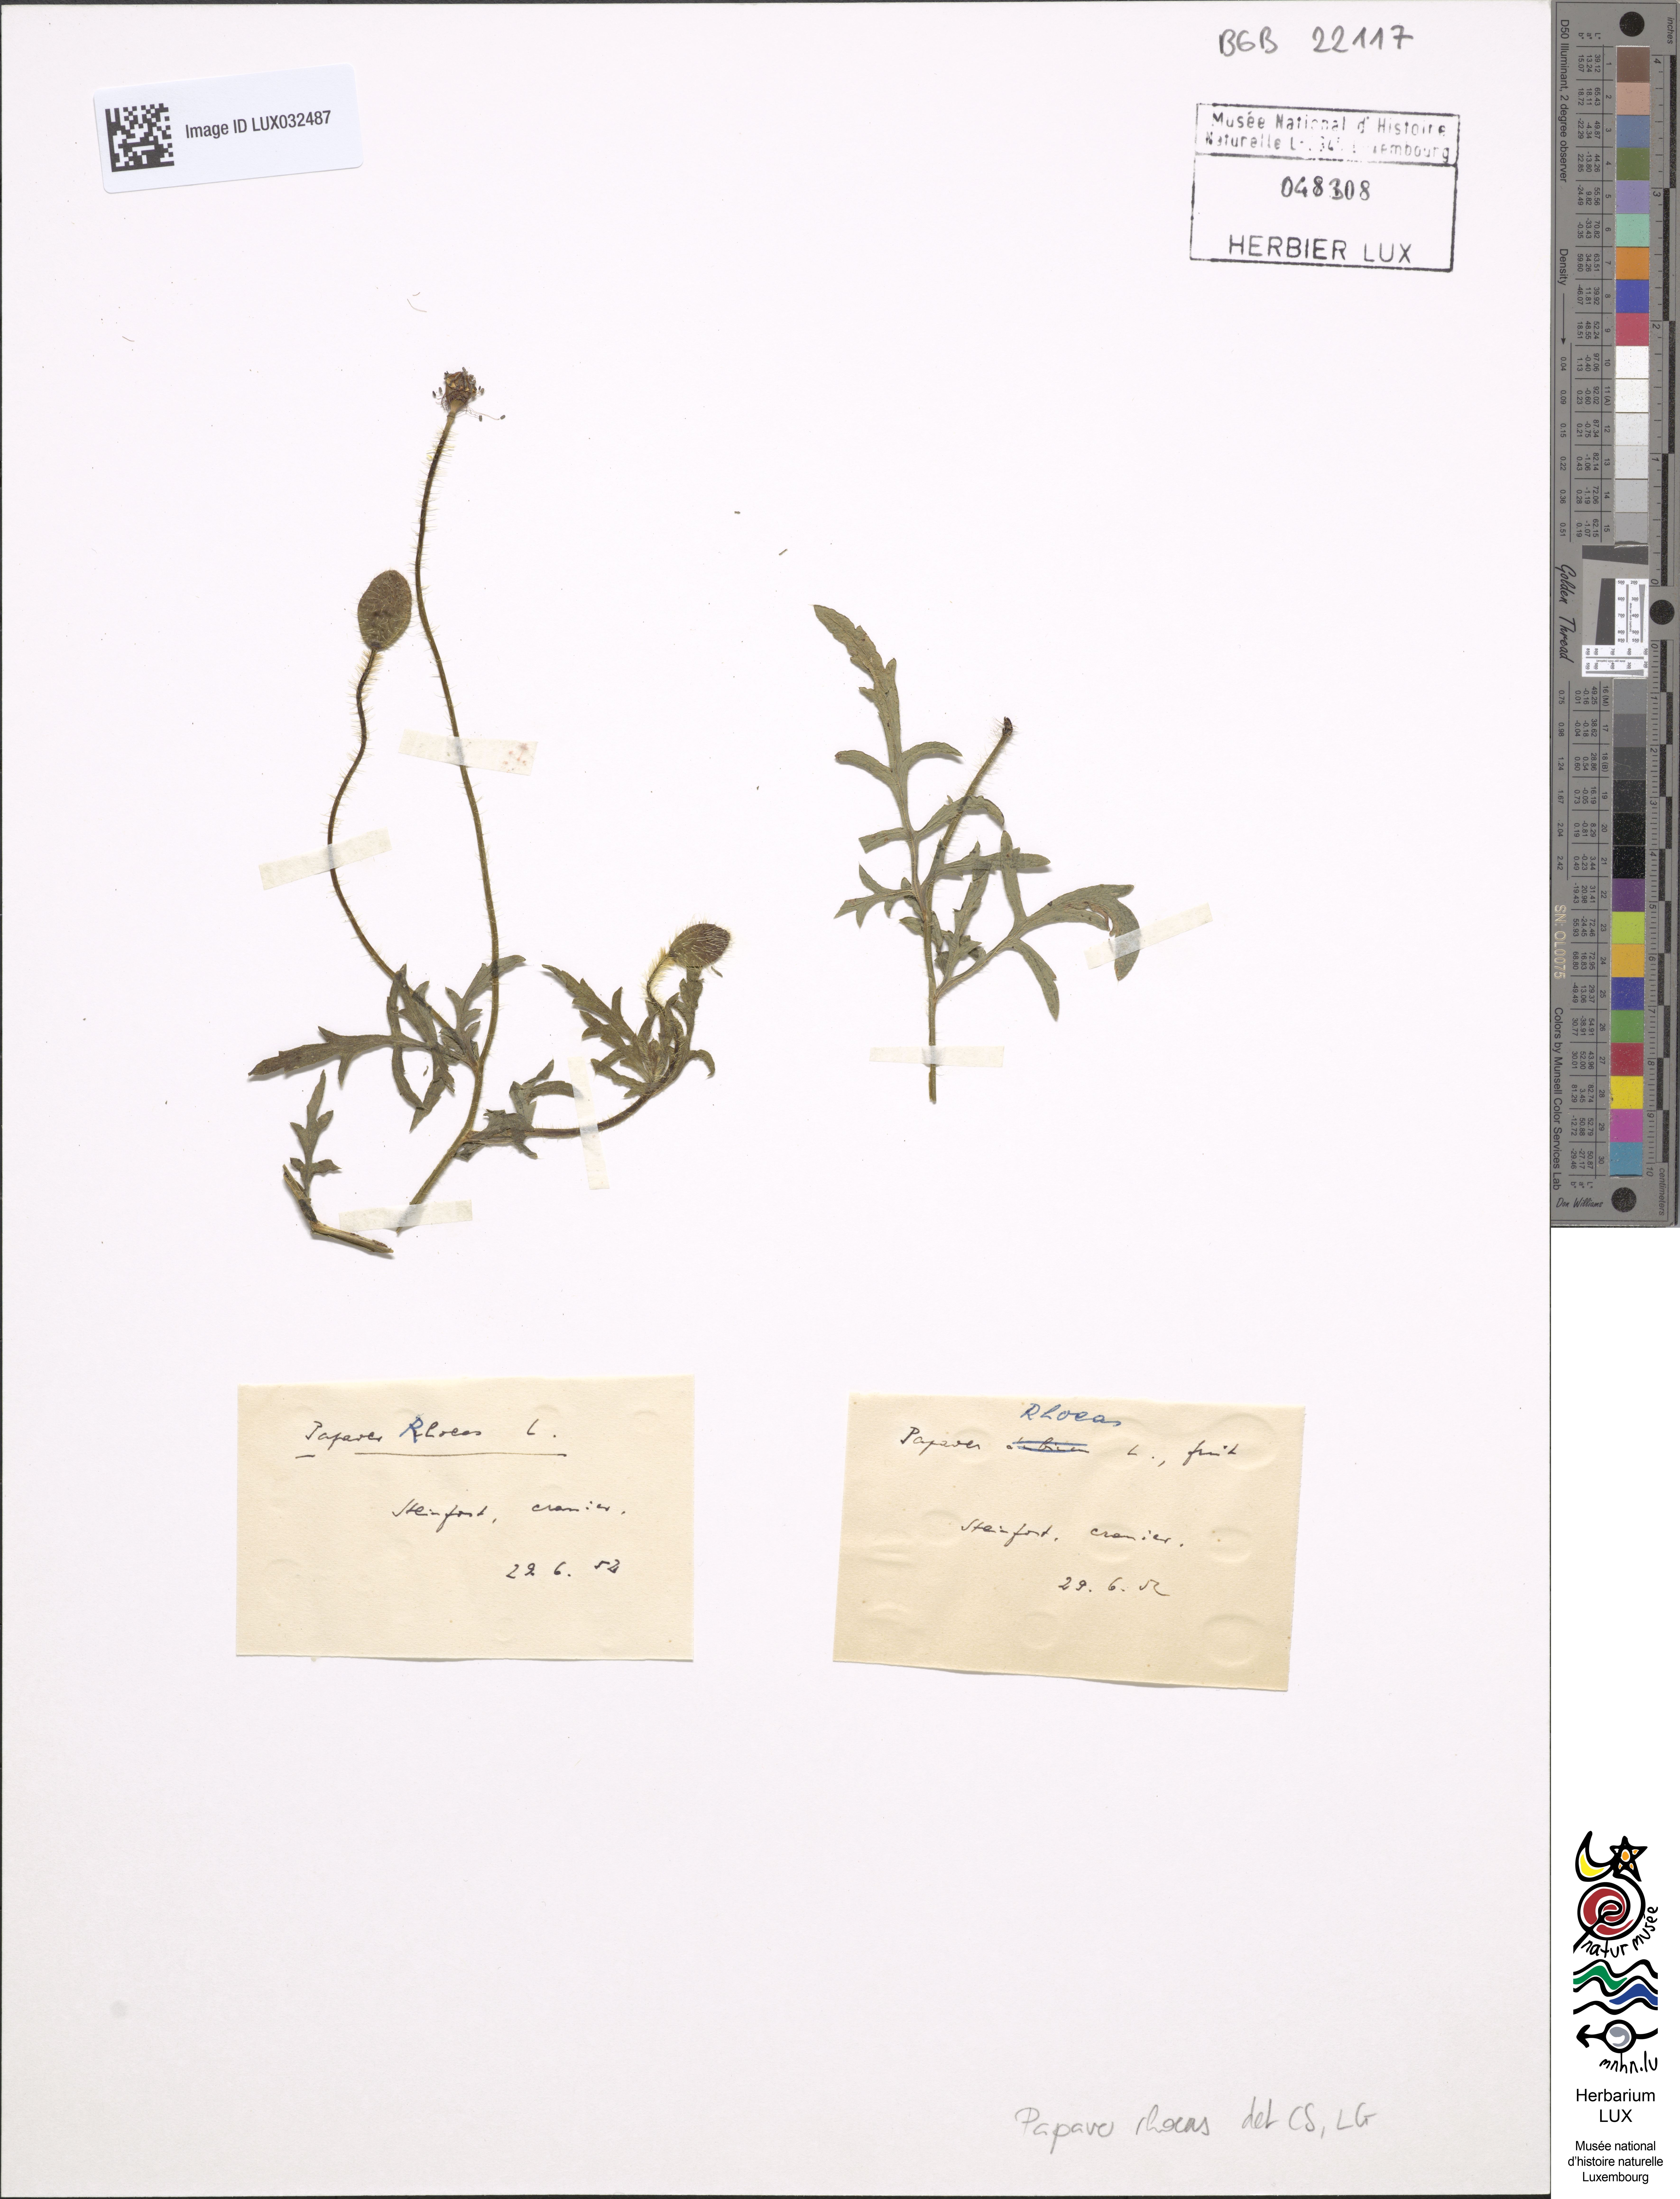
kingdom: Plantae
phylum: Tracheophyta
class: Magnoliopsida
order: Ranunculales
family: Papaveraceae
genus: Papaver
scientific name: Papaver rhoeas
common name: Corn poppy
